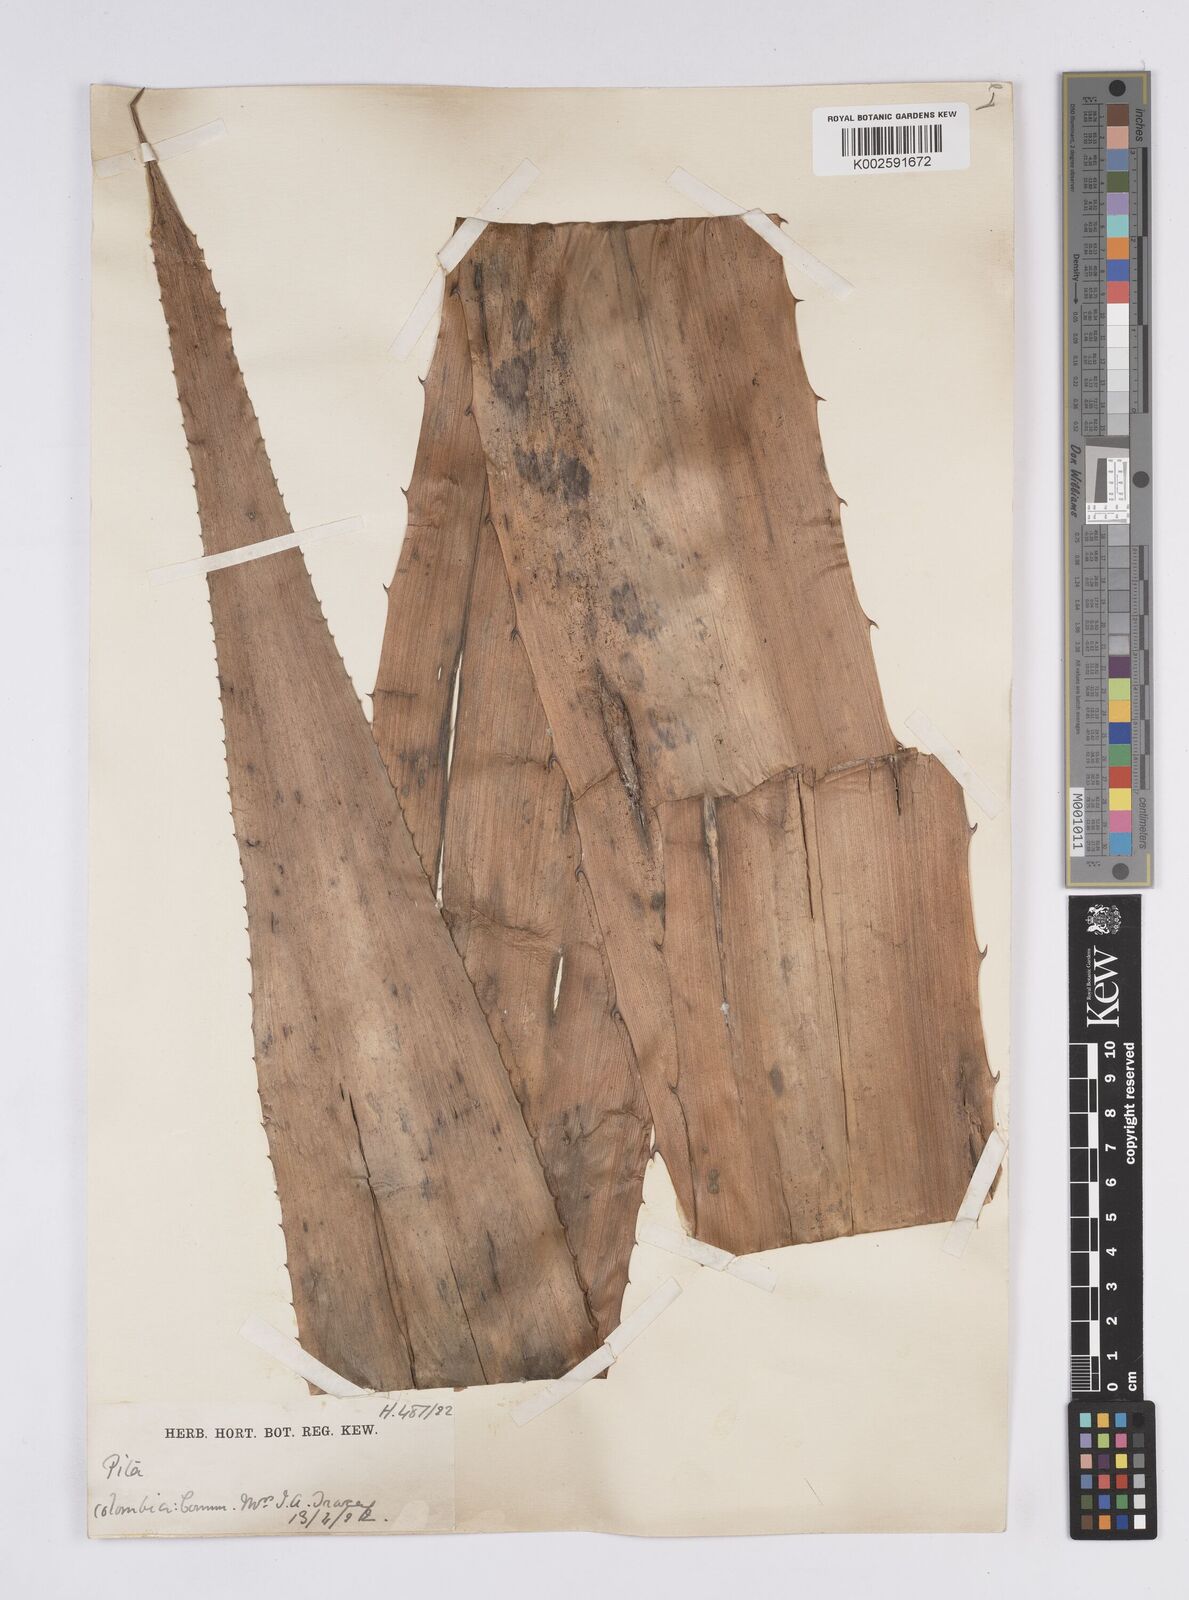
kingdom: Plantae
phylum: Tracheophyta
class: Liliopsida
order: Poales
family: Bromeliaceae
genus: Aechmea
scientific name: Aechmea magdalenae
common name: Arghan
